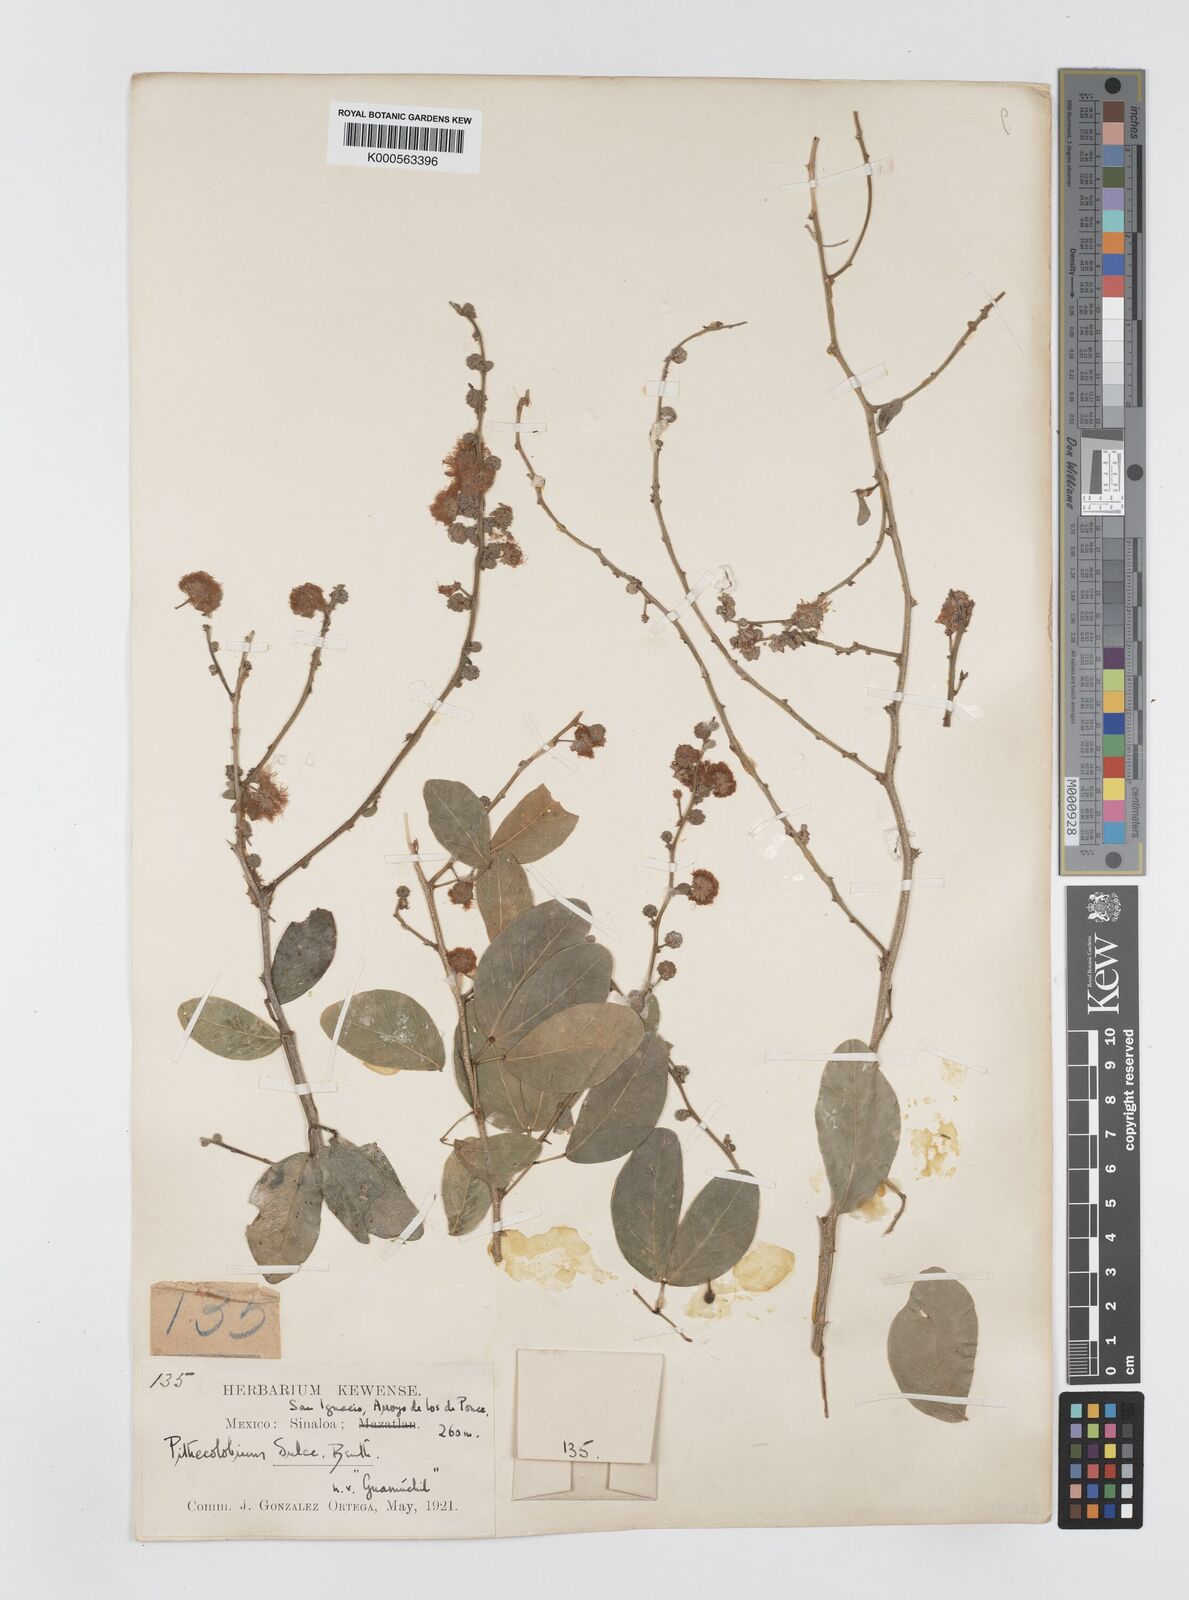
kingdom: Plantae
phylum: Tracheophyta
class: Magnoliopsida
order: Fabales
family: Fabaceae
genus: Pithecellobium
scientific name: Pithecellobium dulce
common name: Monkeypod
